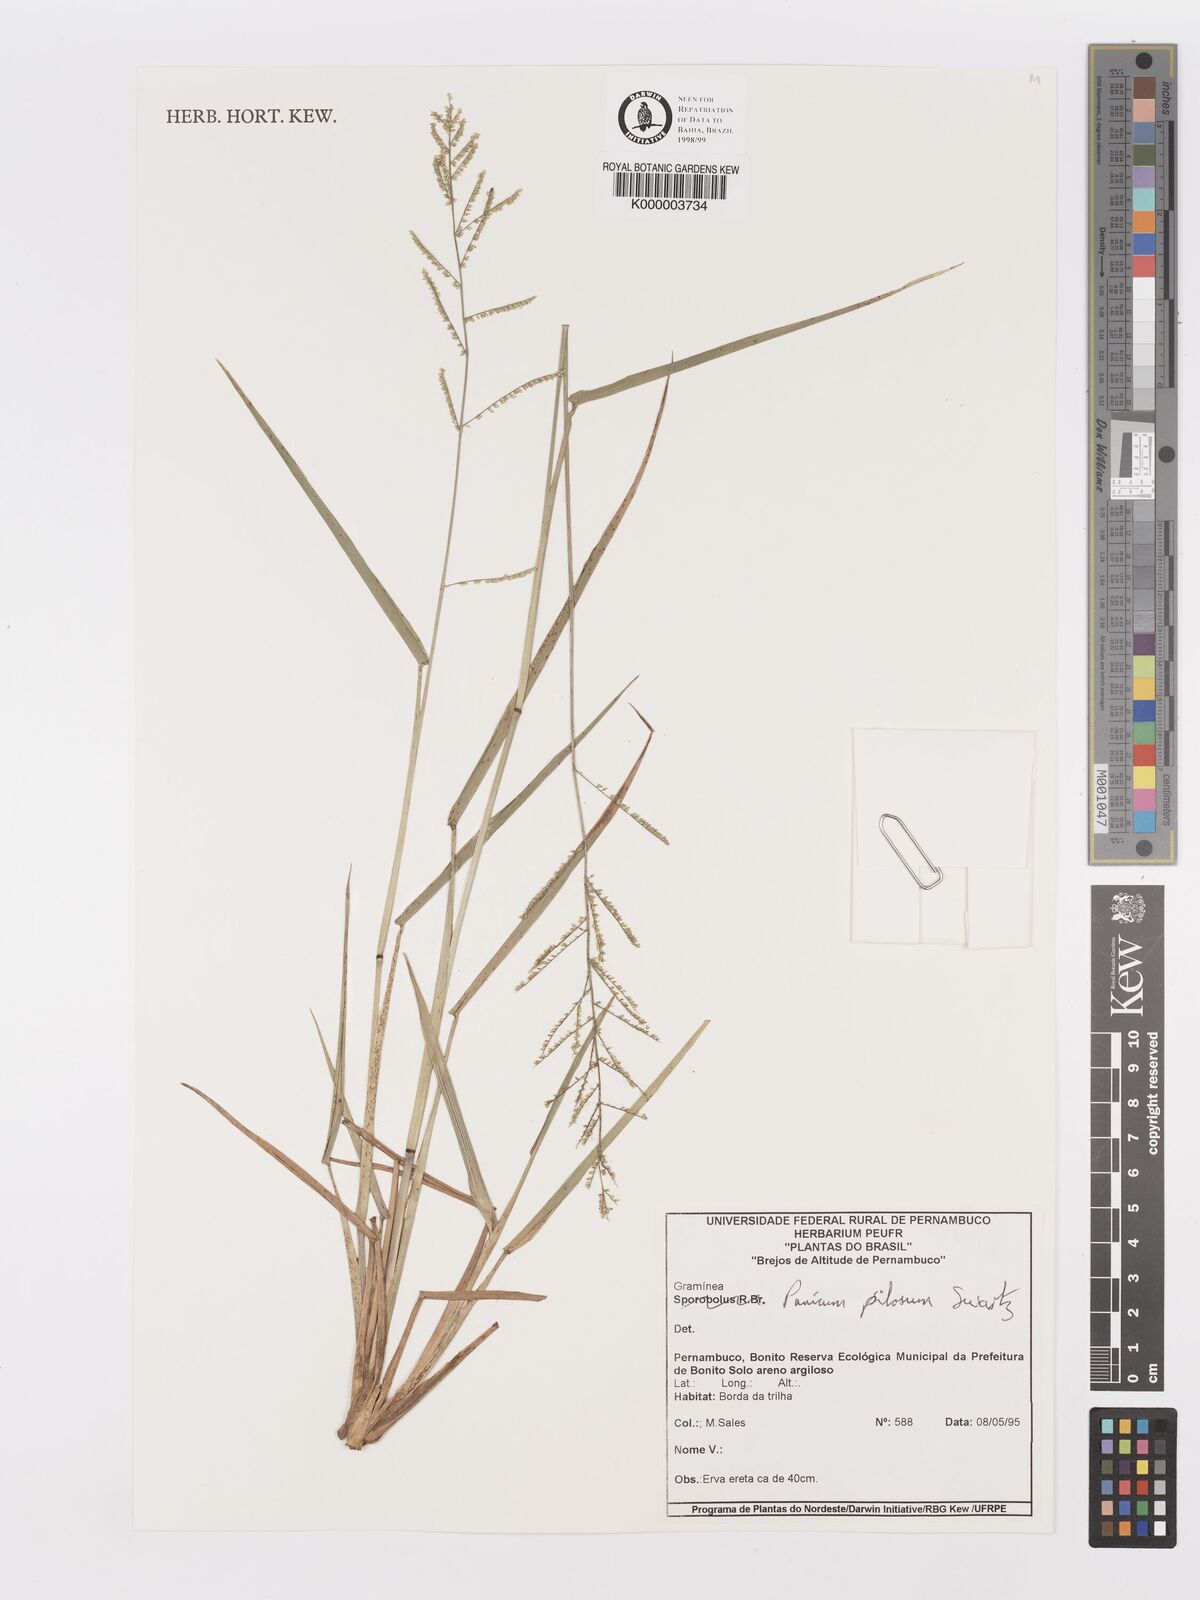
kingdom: Plantae
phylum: Tracheophyta
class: Liliopsida
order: Poales
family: Poaceae
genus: Rugoloa
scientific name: Rugoloa pilosa
